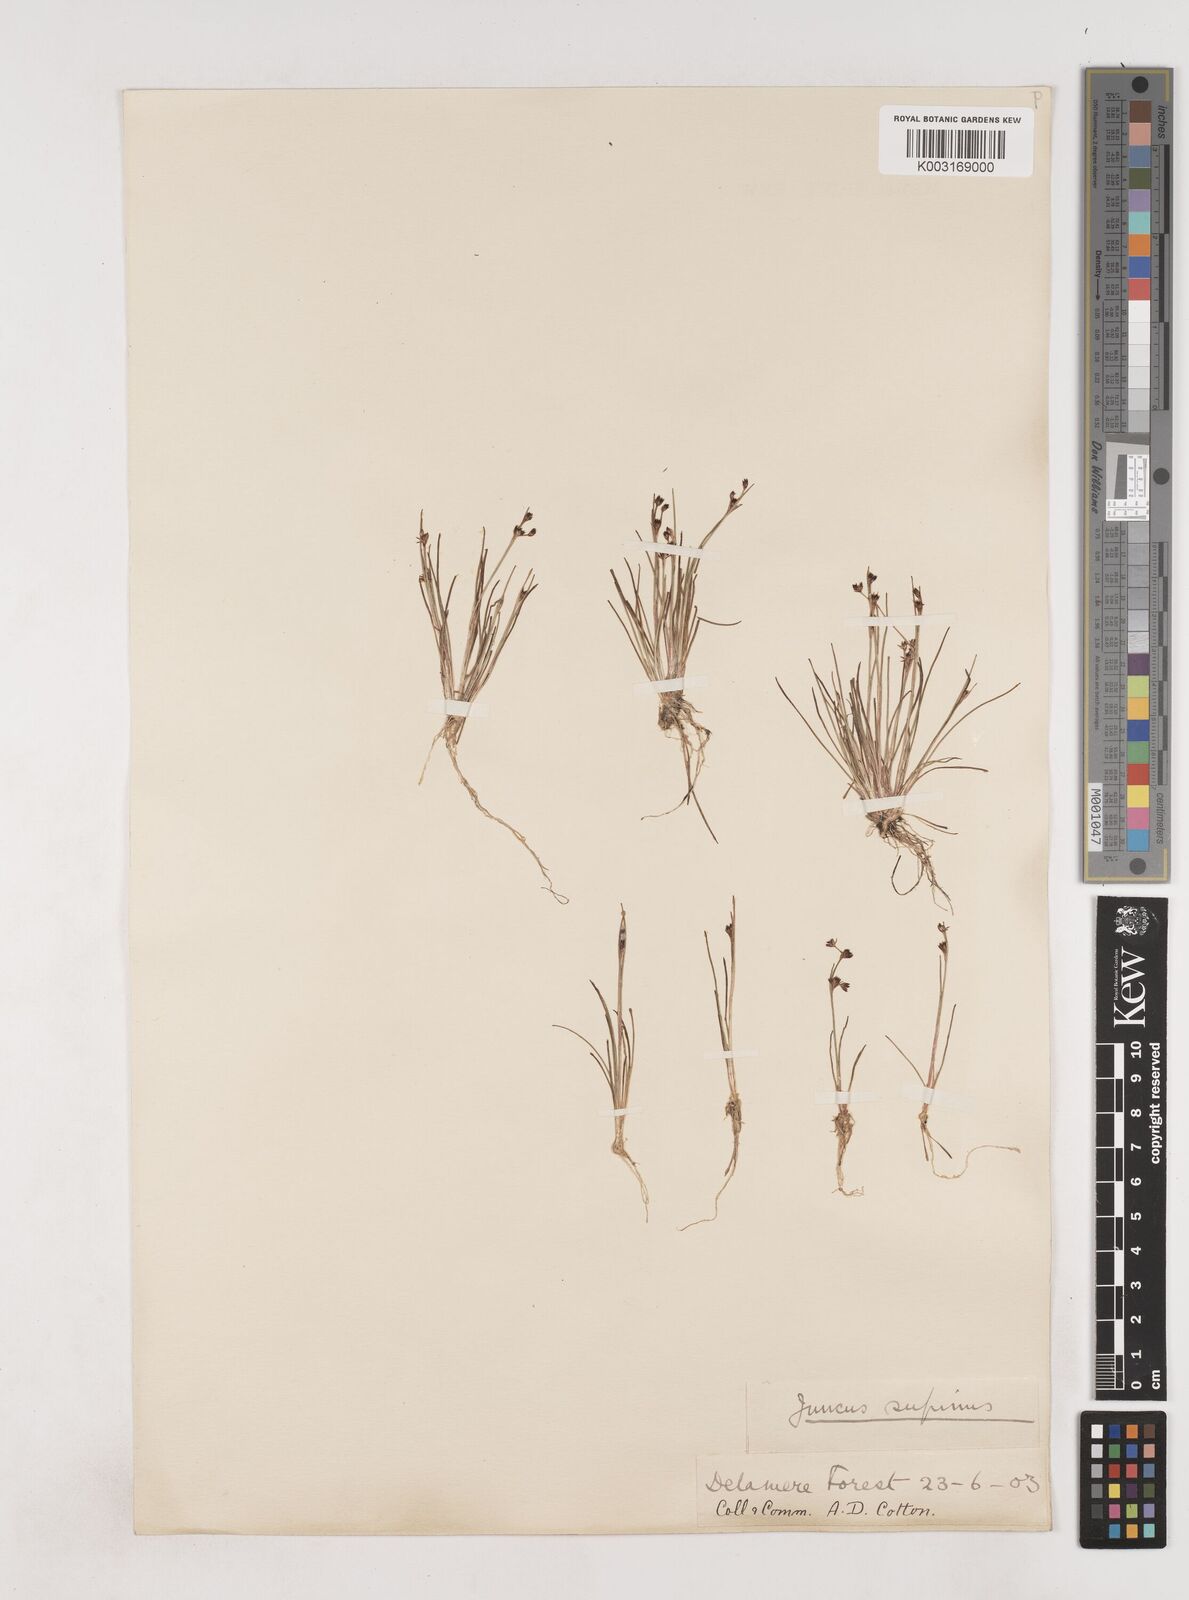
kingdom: Plantae
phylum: Tracheophyta
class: Liliopsida
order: Poales
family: Juncaceae
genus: Juncus
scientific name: Juncus bulbosus
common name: Bulbous rush
